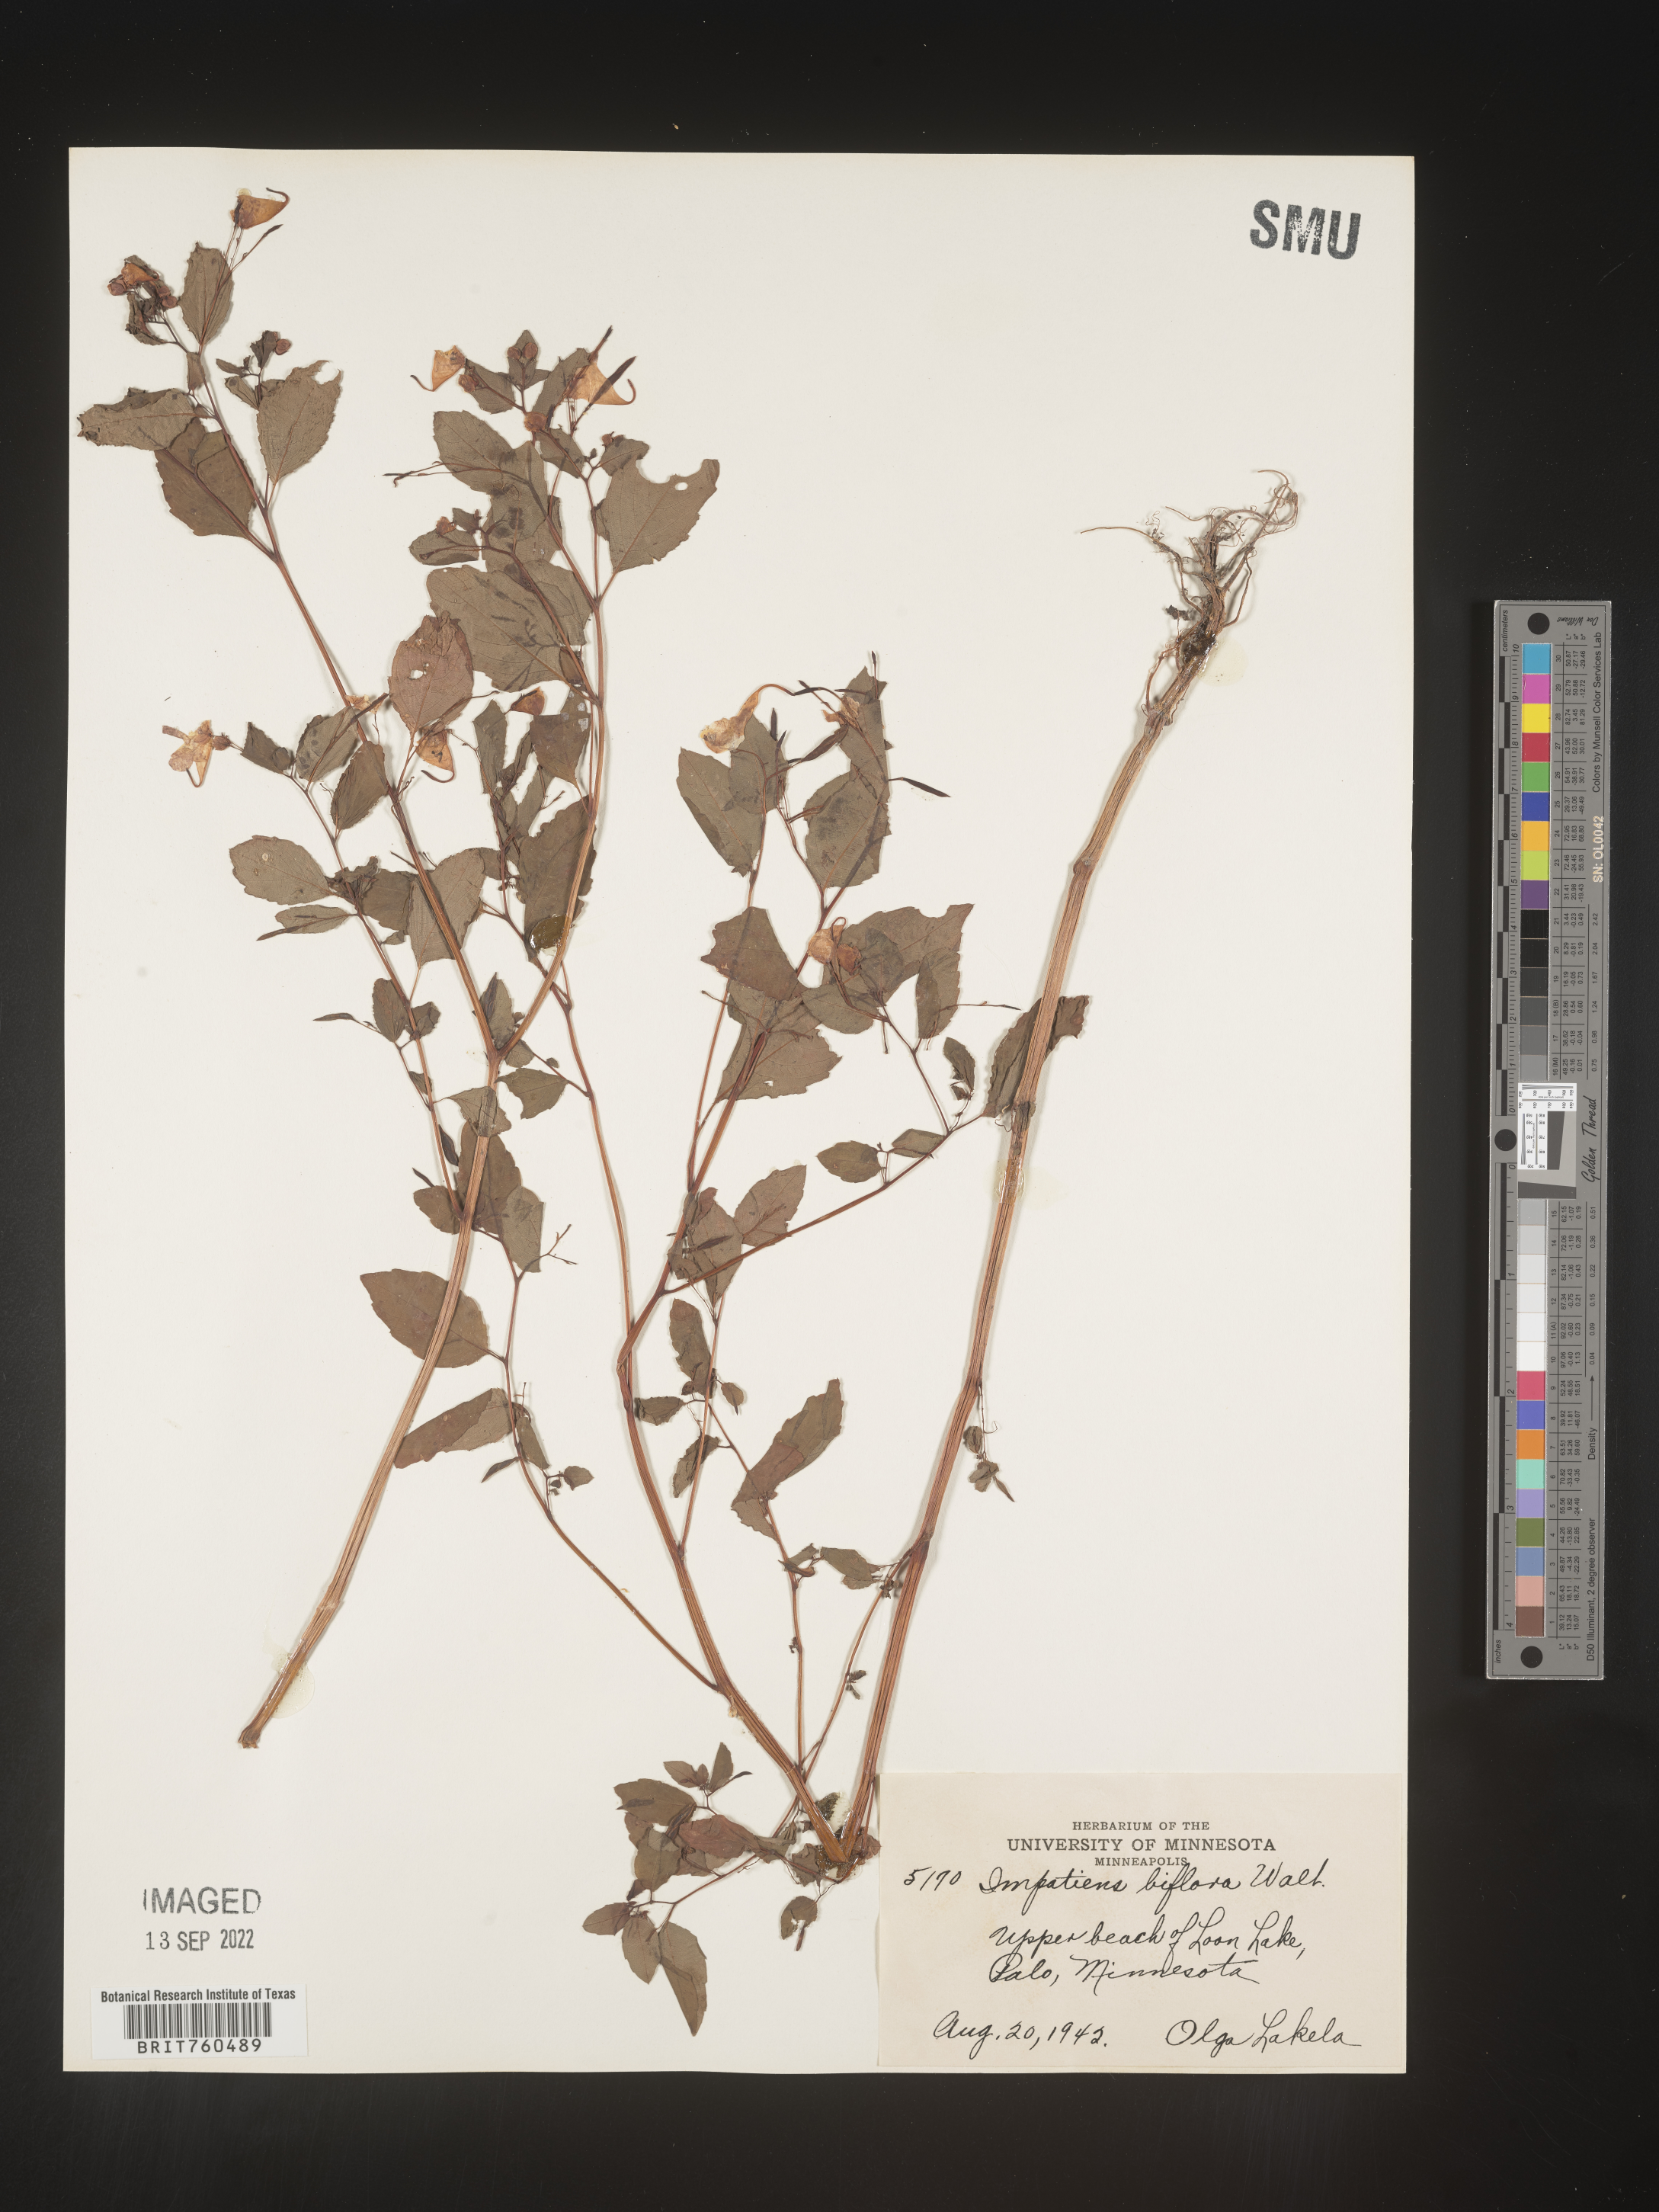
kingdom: Plantae
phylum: Tracheophyta
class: Magnoliopsida
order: Ericales
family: Balsaminaceae
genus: Impatiens
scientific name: Impatiens capensis
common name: Orange balsam
